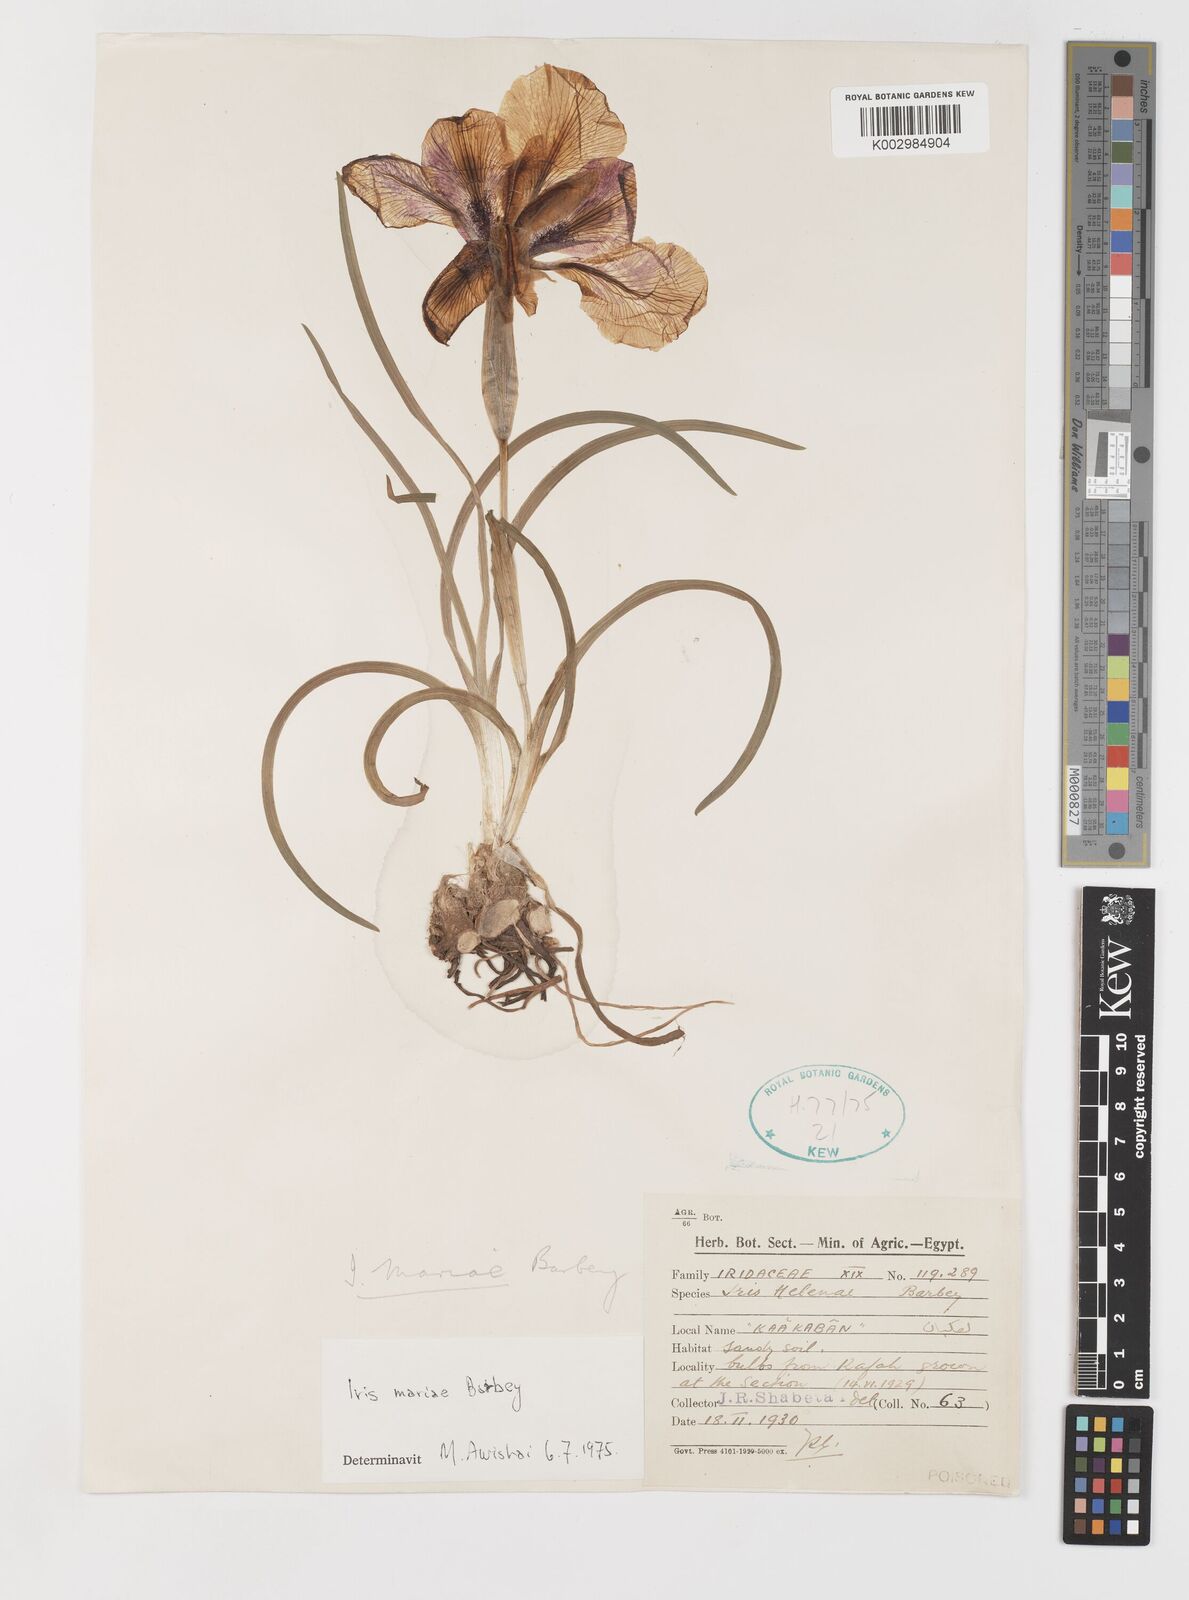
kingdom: Plantae
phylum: Tracheophyta
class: Liliopsida
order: Asparagales
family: Iridaceae
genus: Iris
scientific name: Iris mariae
